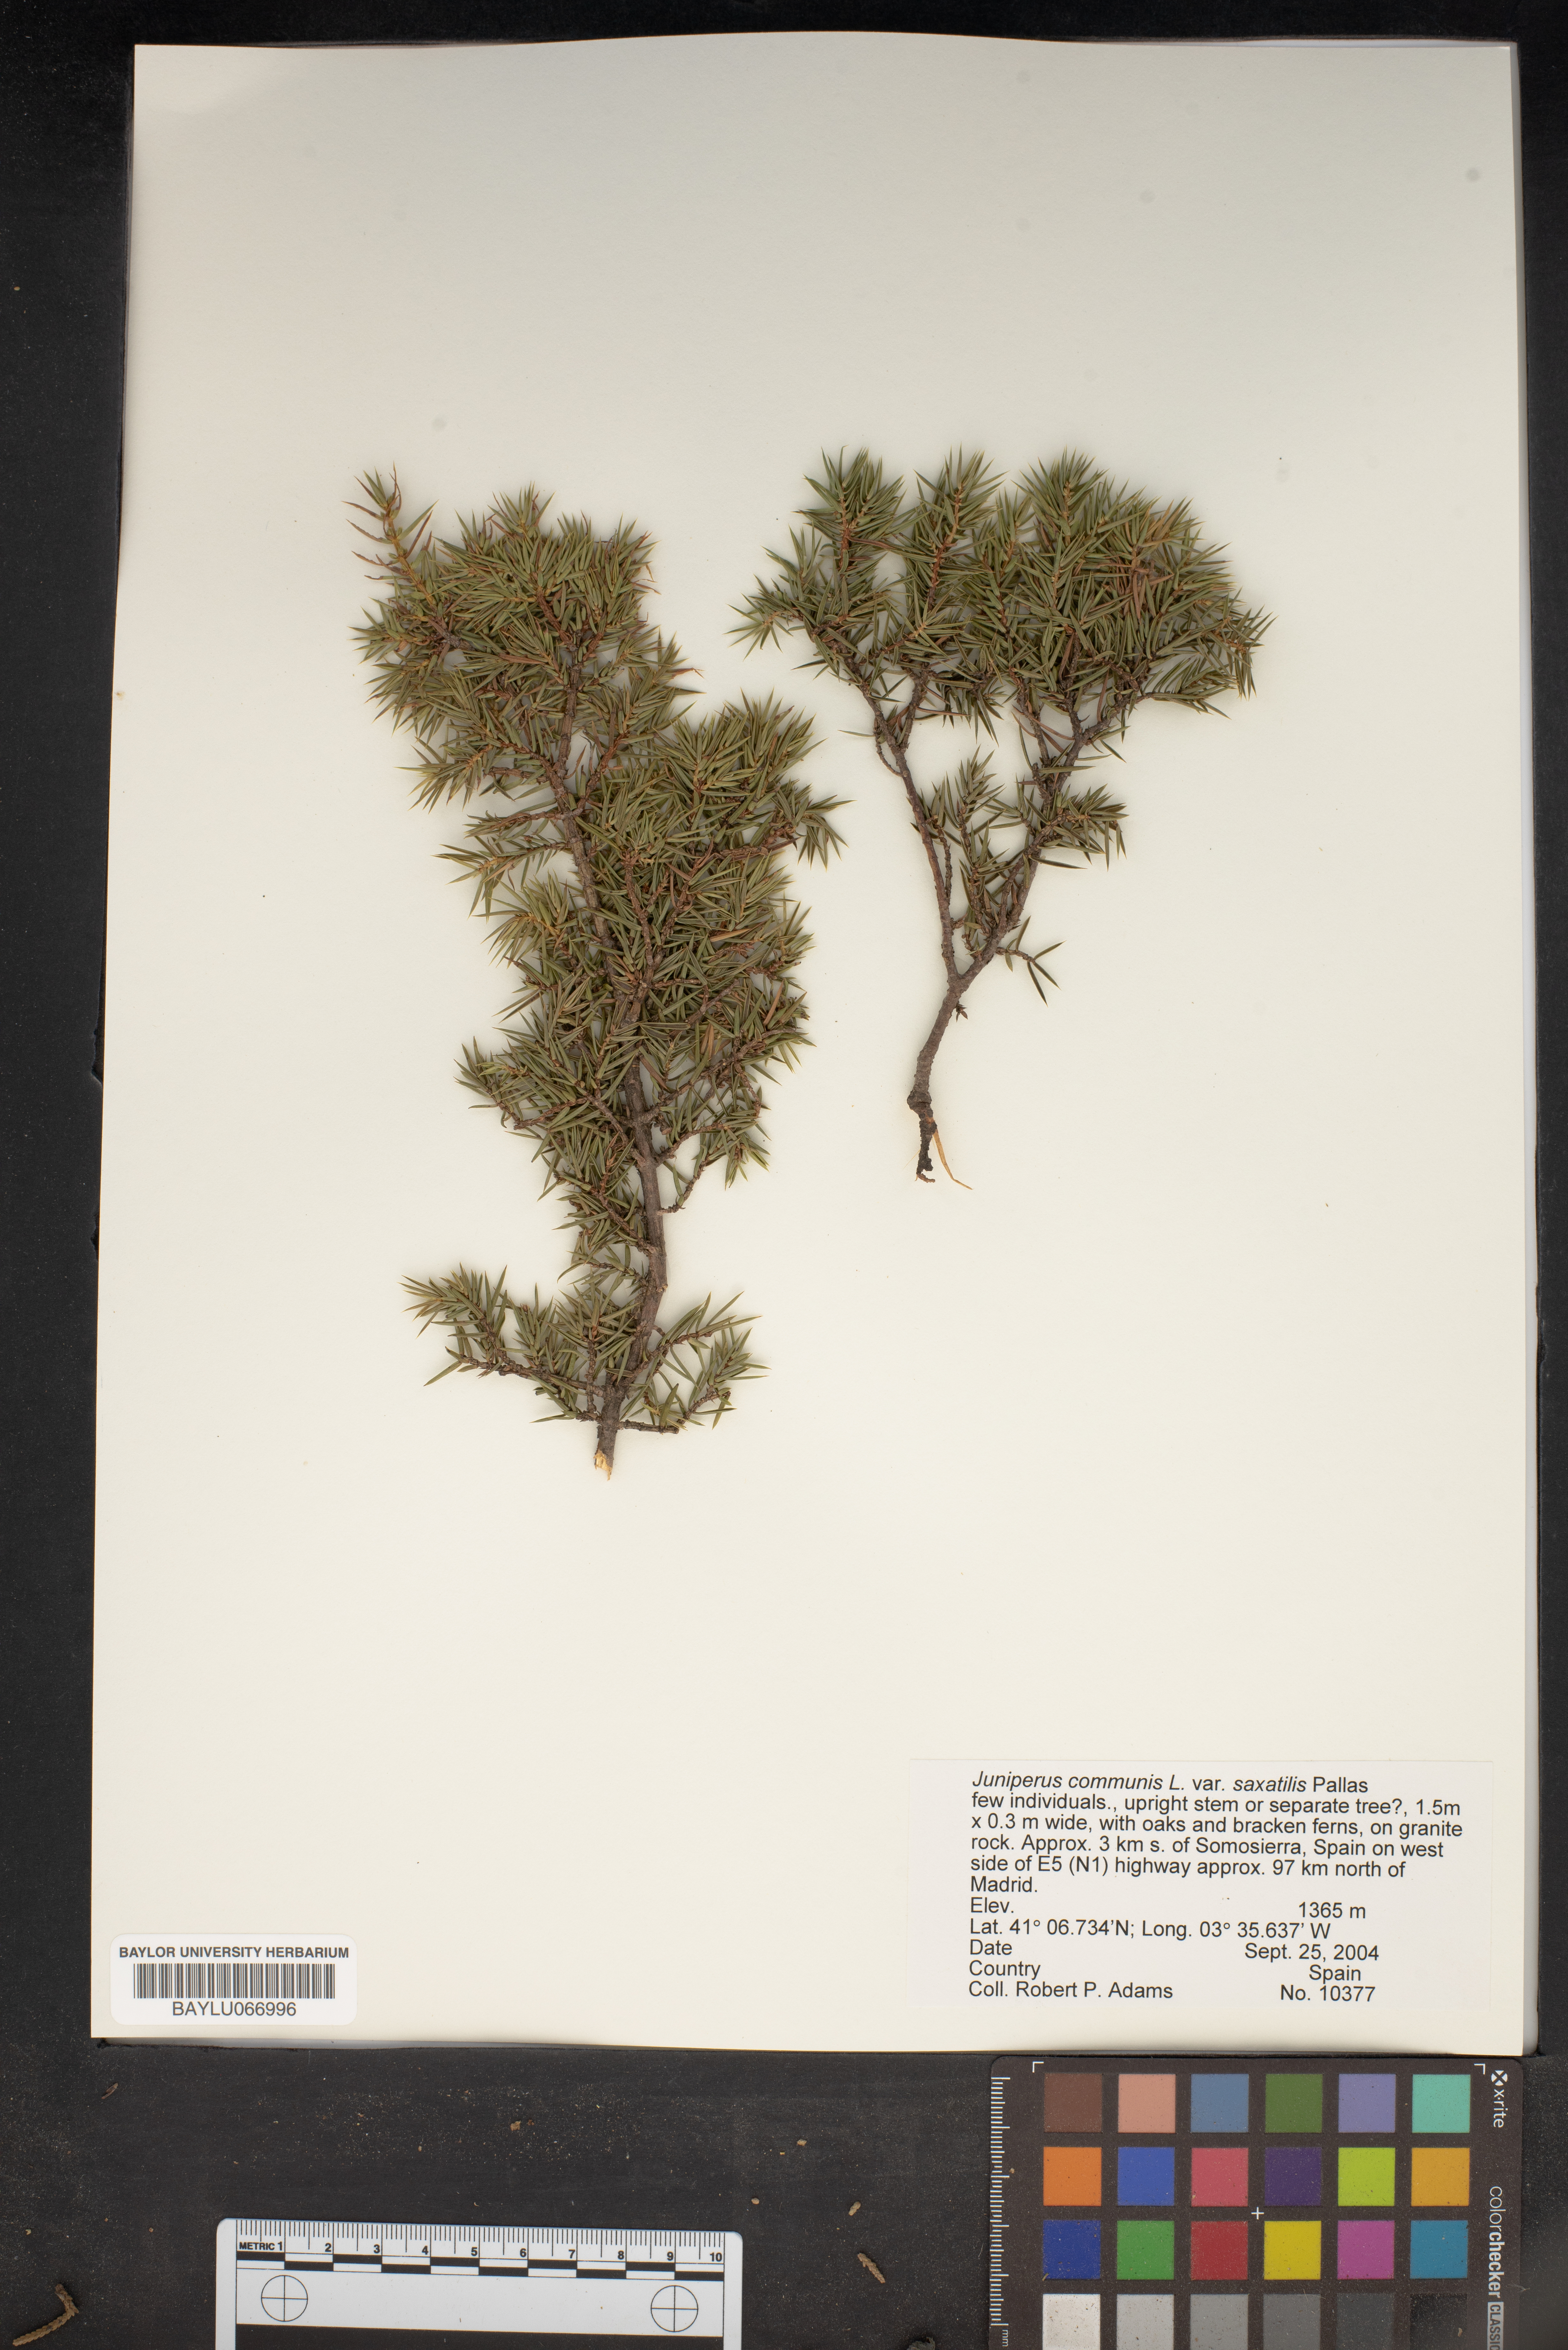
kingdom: Plantae
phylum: Tracheophyta
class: Pinopsida
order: Pinales
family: Cupressaceae
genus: Juniperus
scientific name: Juniperus communis
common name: Common juniper
